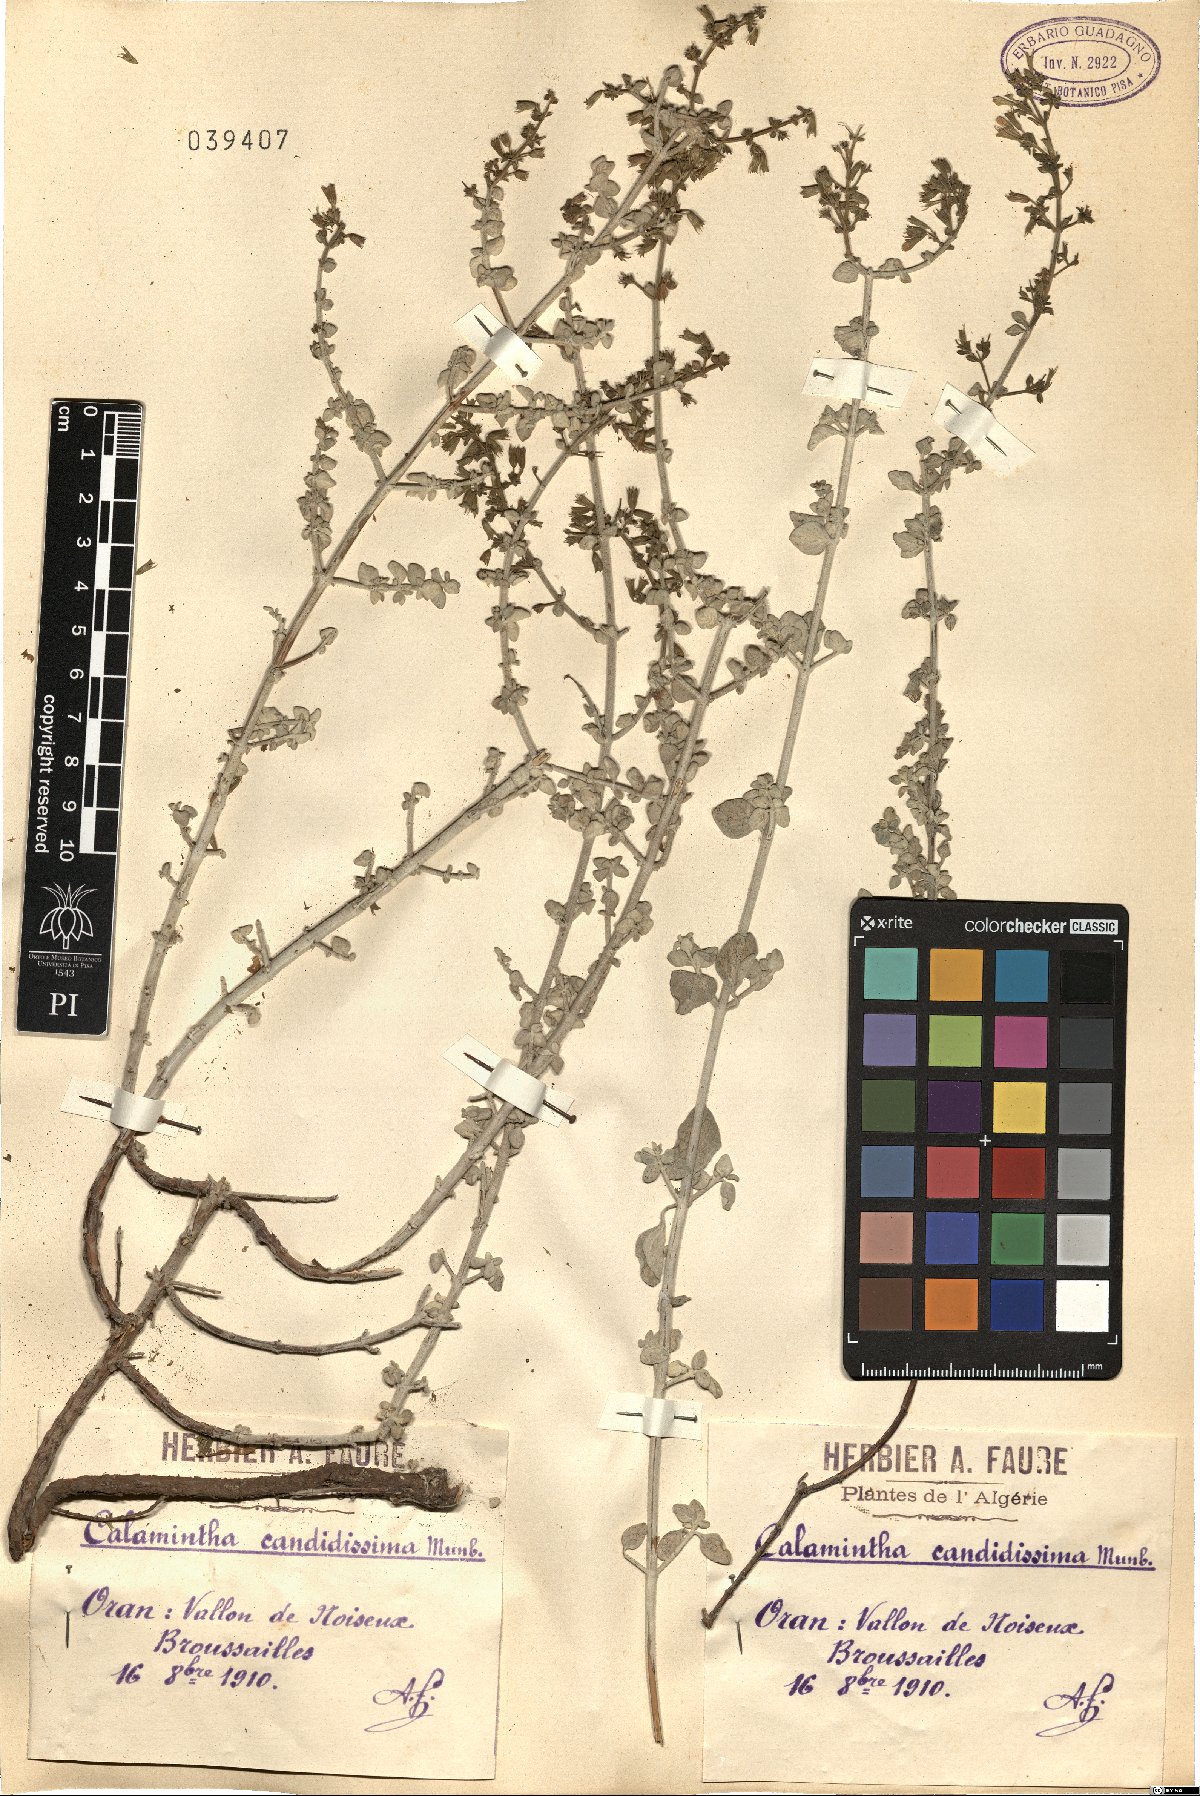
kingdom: Plantae
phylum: Tracheophyta
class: Magnoliopsida
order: Lamiales
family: Lamiaceae
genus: Clinopodium
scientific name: Clinopodium candidissimum
